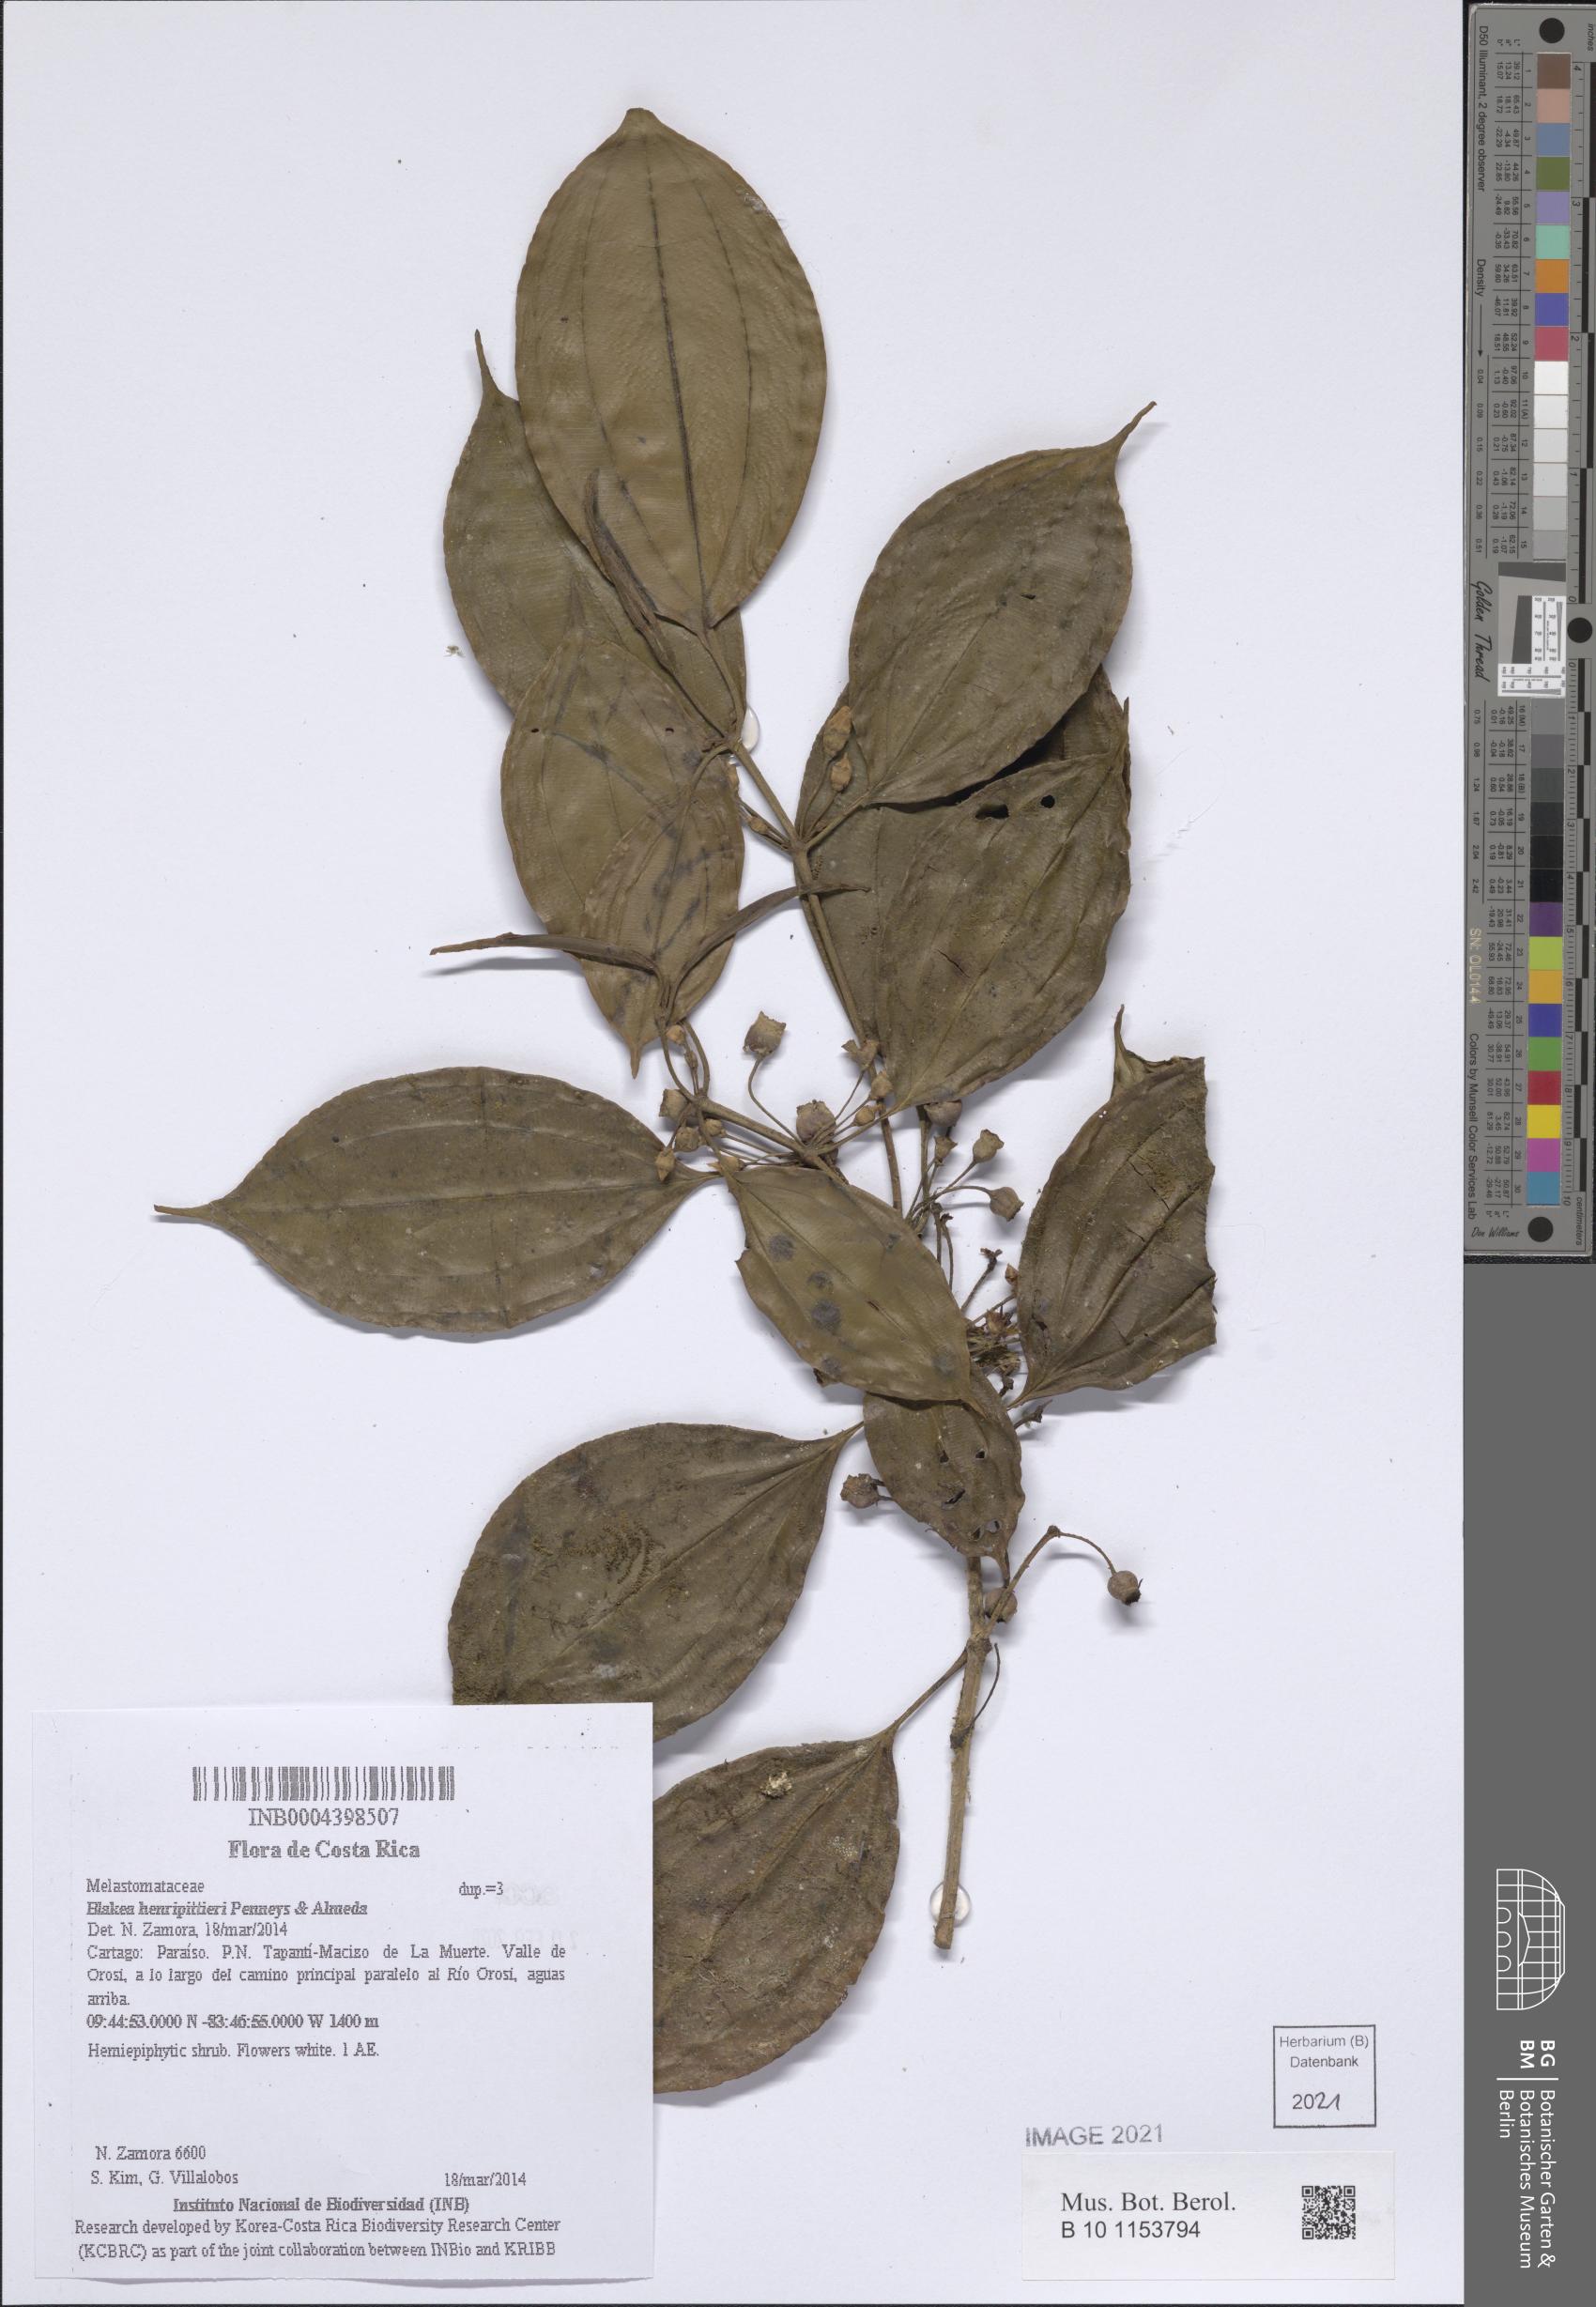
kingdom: Plantae
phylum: Tracheophyta
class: Magnoliopsida
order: Myrtales
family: Melastomataceae
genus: Blakea
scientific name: Blakea henripittieri
